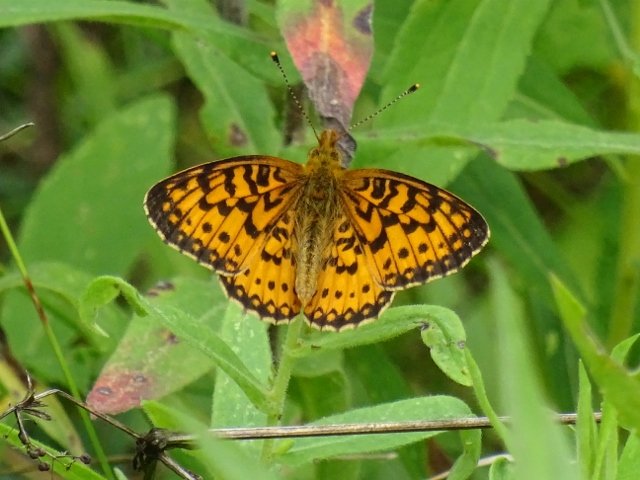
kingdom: Animalia
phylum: Arthropoda
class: Insecta
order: Lepidoptera
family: Nymphalidae
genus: Boloria
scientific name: Boloria selene
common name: Silver-bordered Fritillary
